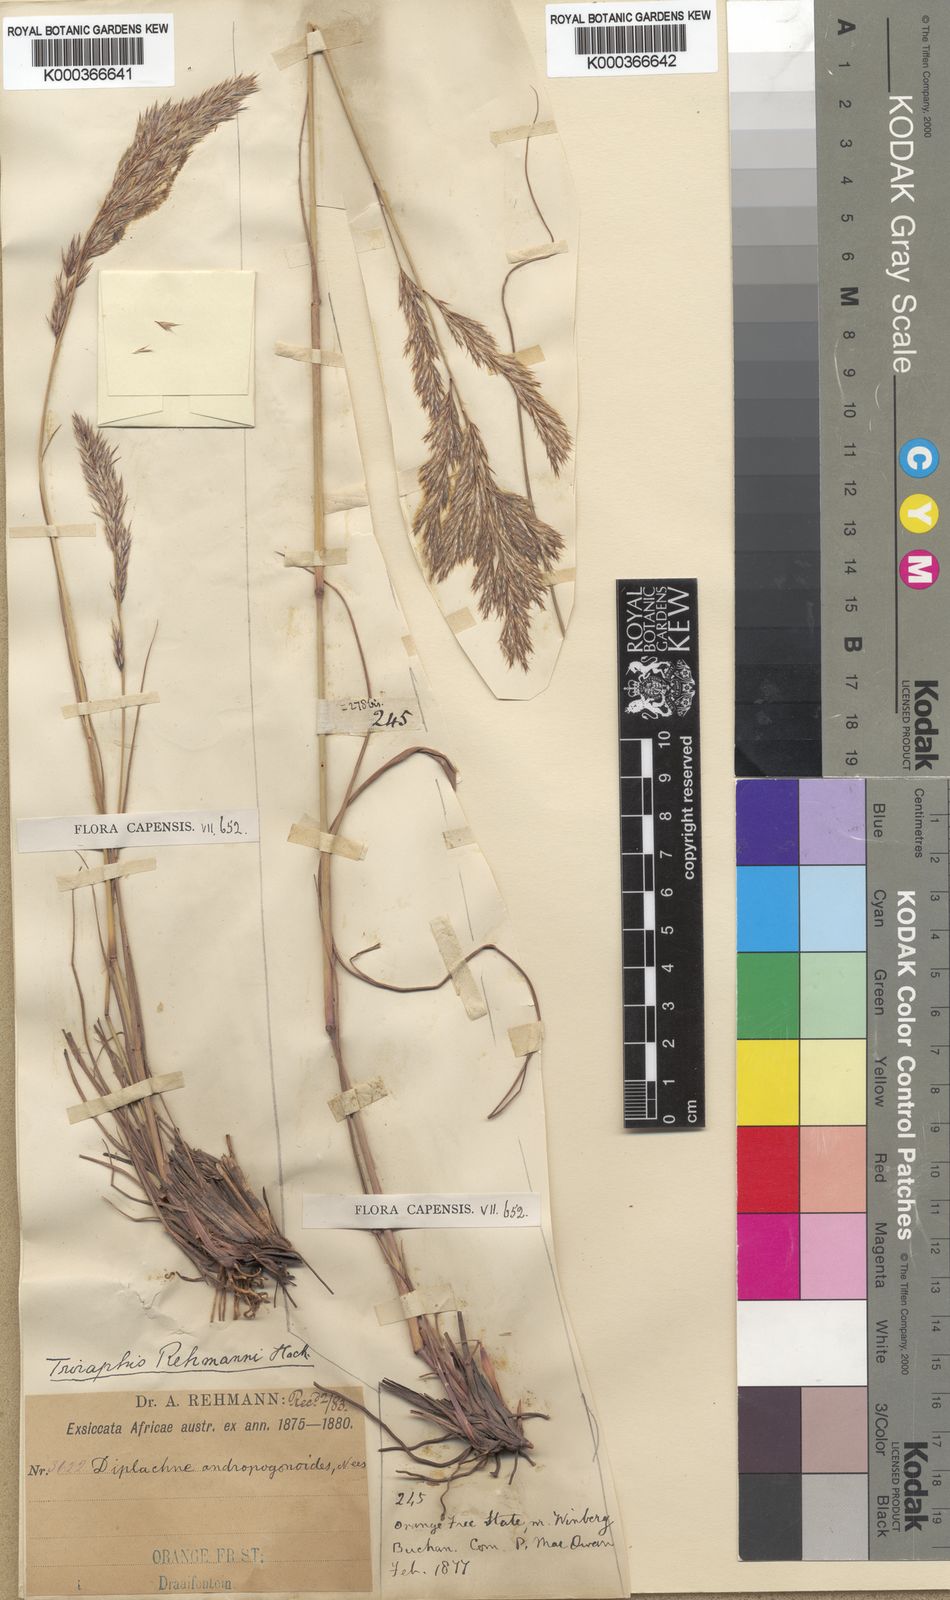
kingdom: Plantae
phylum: Tracheophyta
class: Liliopsida
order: Poales
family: Poaceae
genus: Triraphis
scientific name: Triraphis andropogonoides
